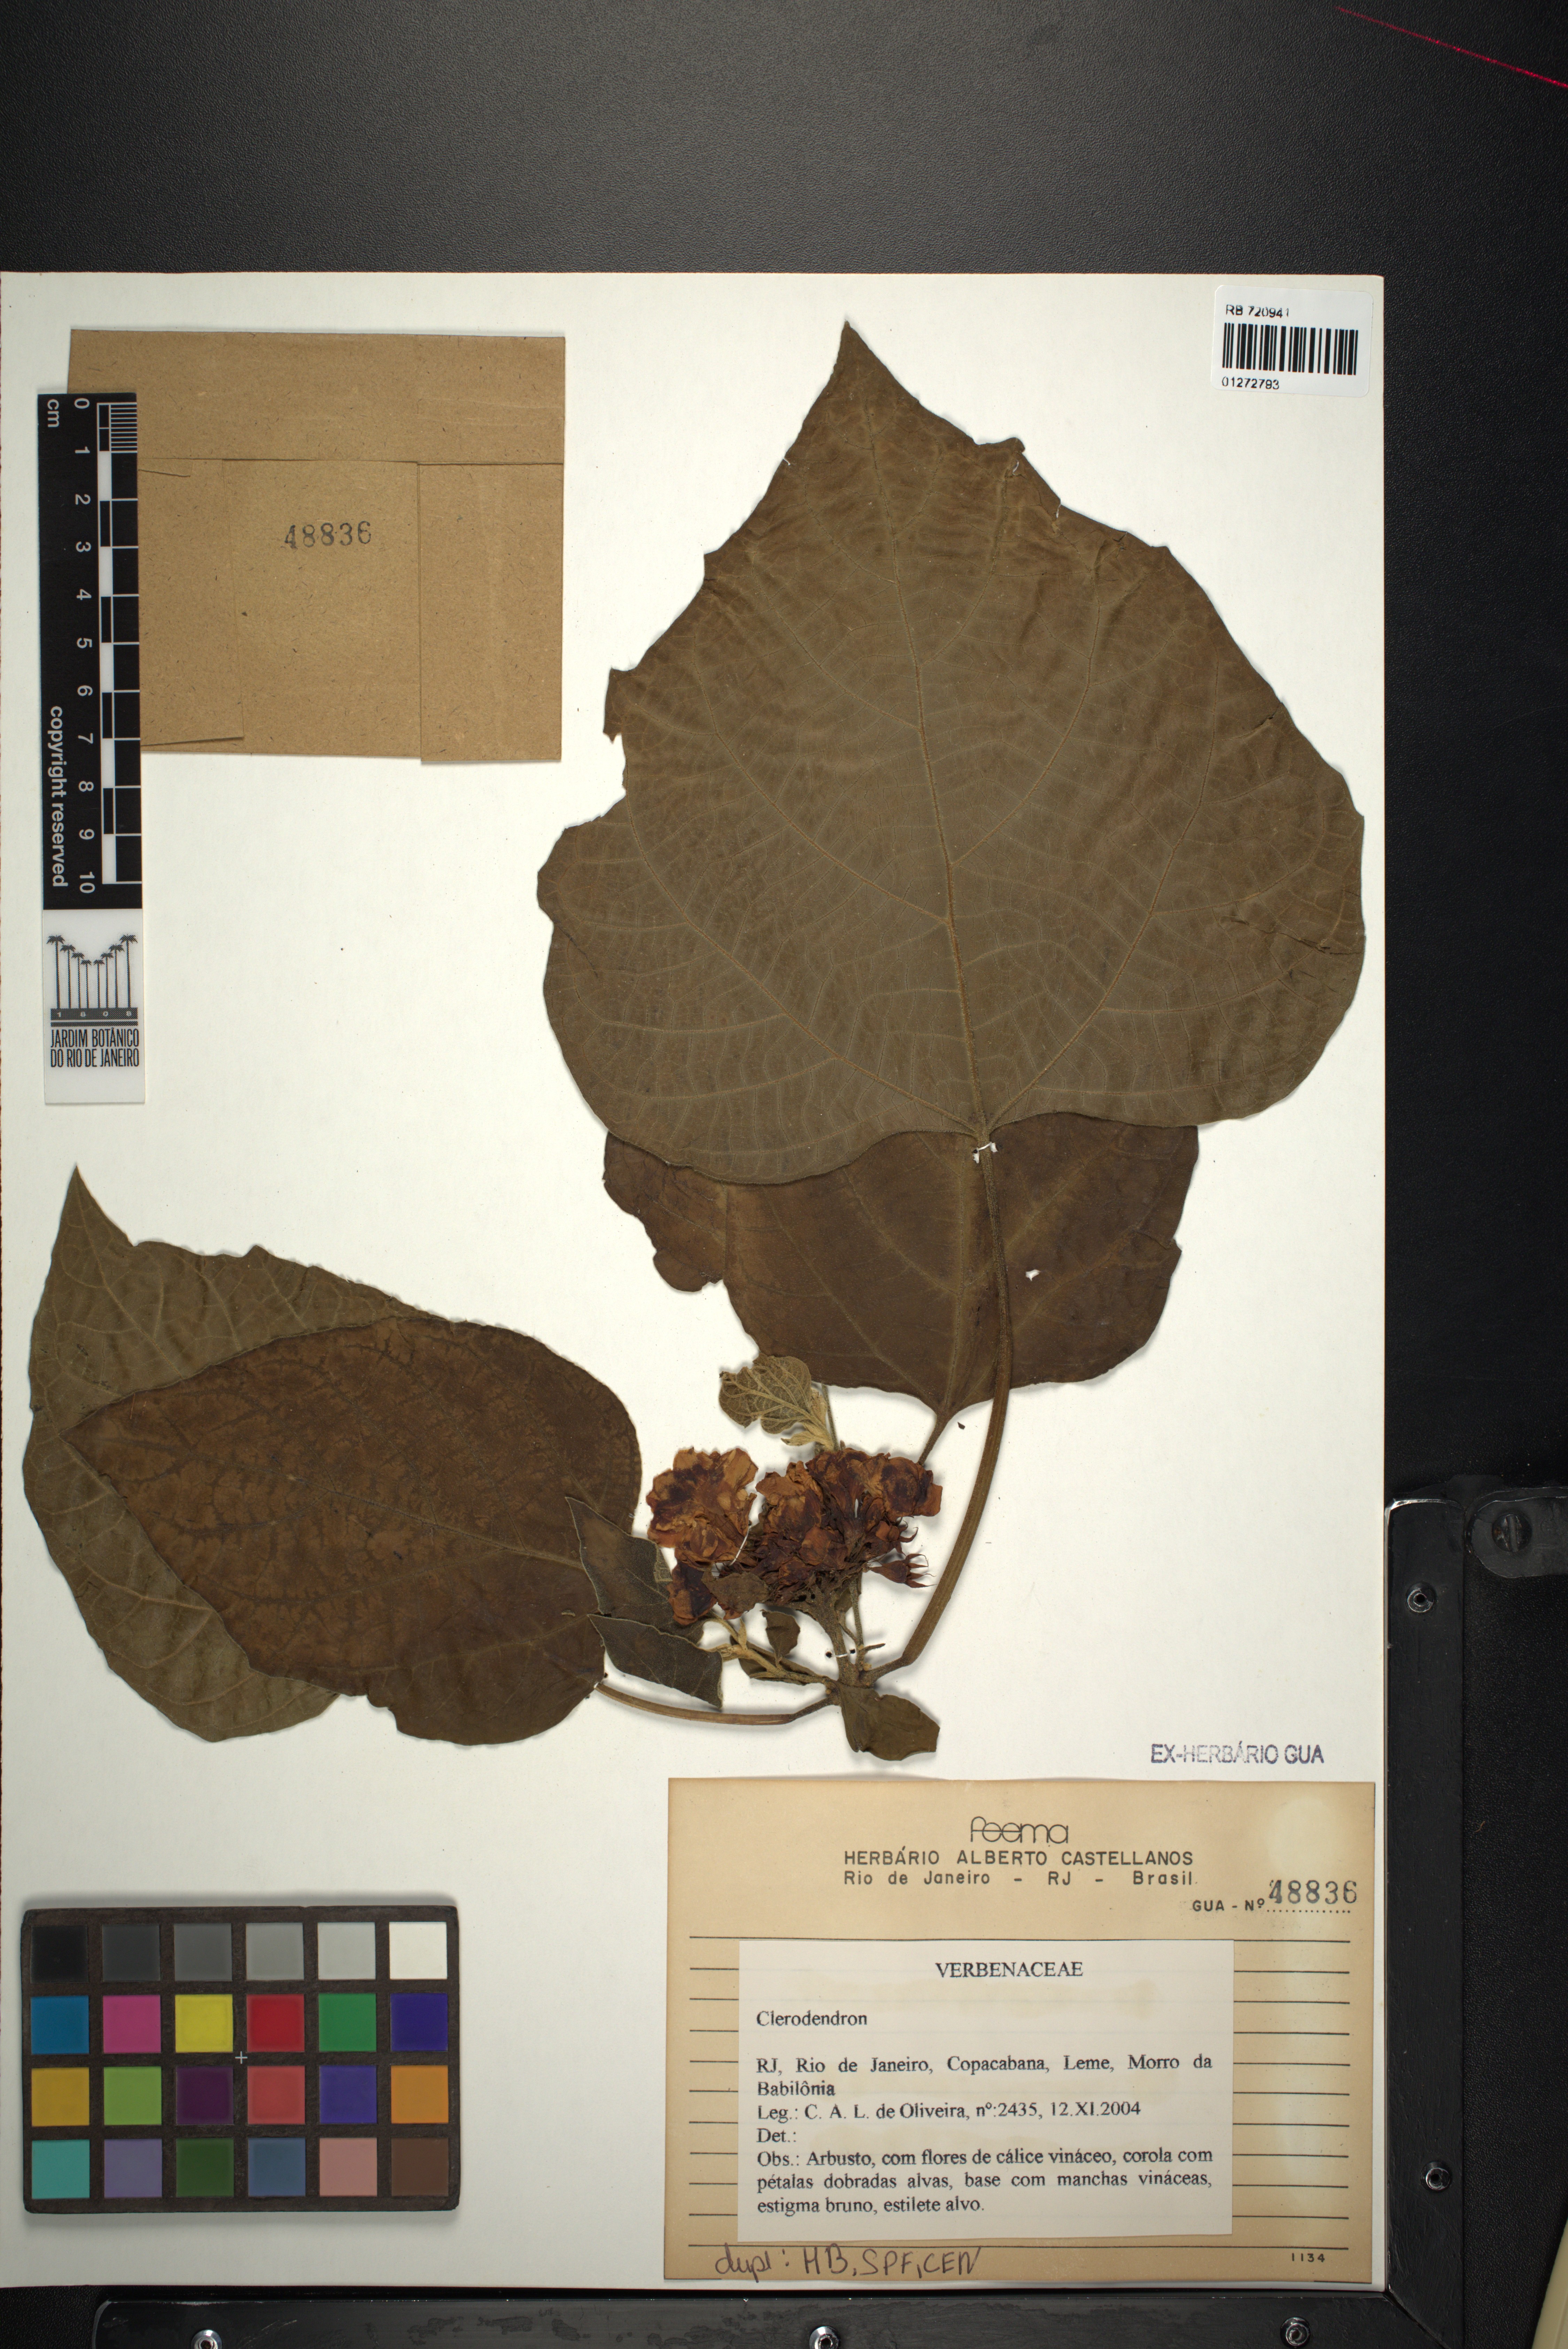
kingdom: Plantae
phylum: Tracheophyta
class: Magnoliopsida
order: Lamiales
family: Lamiaceae
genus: Clerodendrum
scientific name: Clerodendrum
